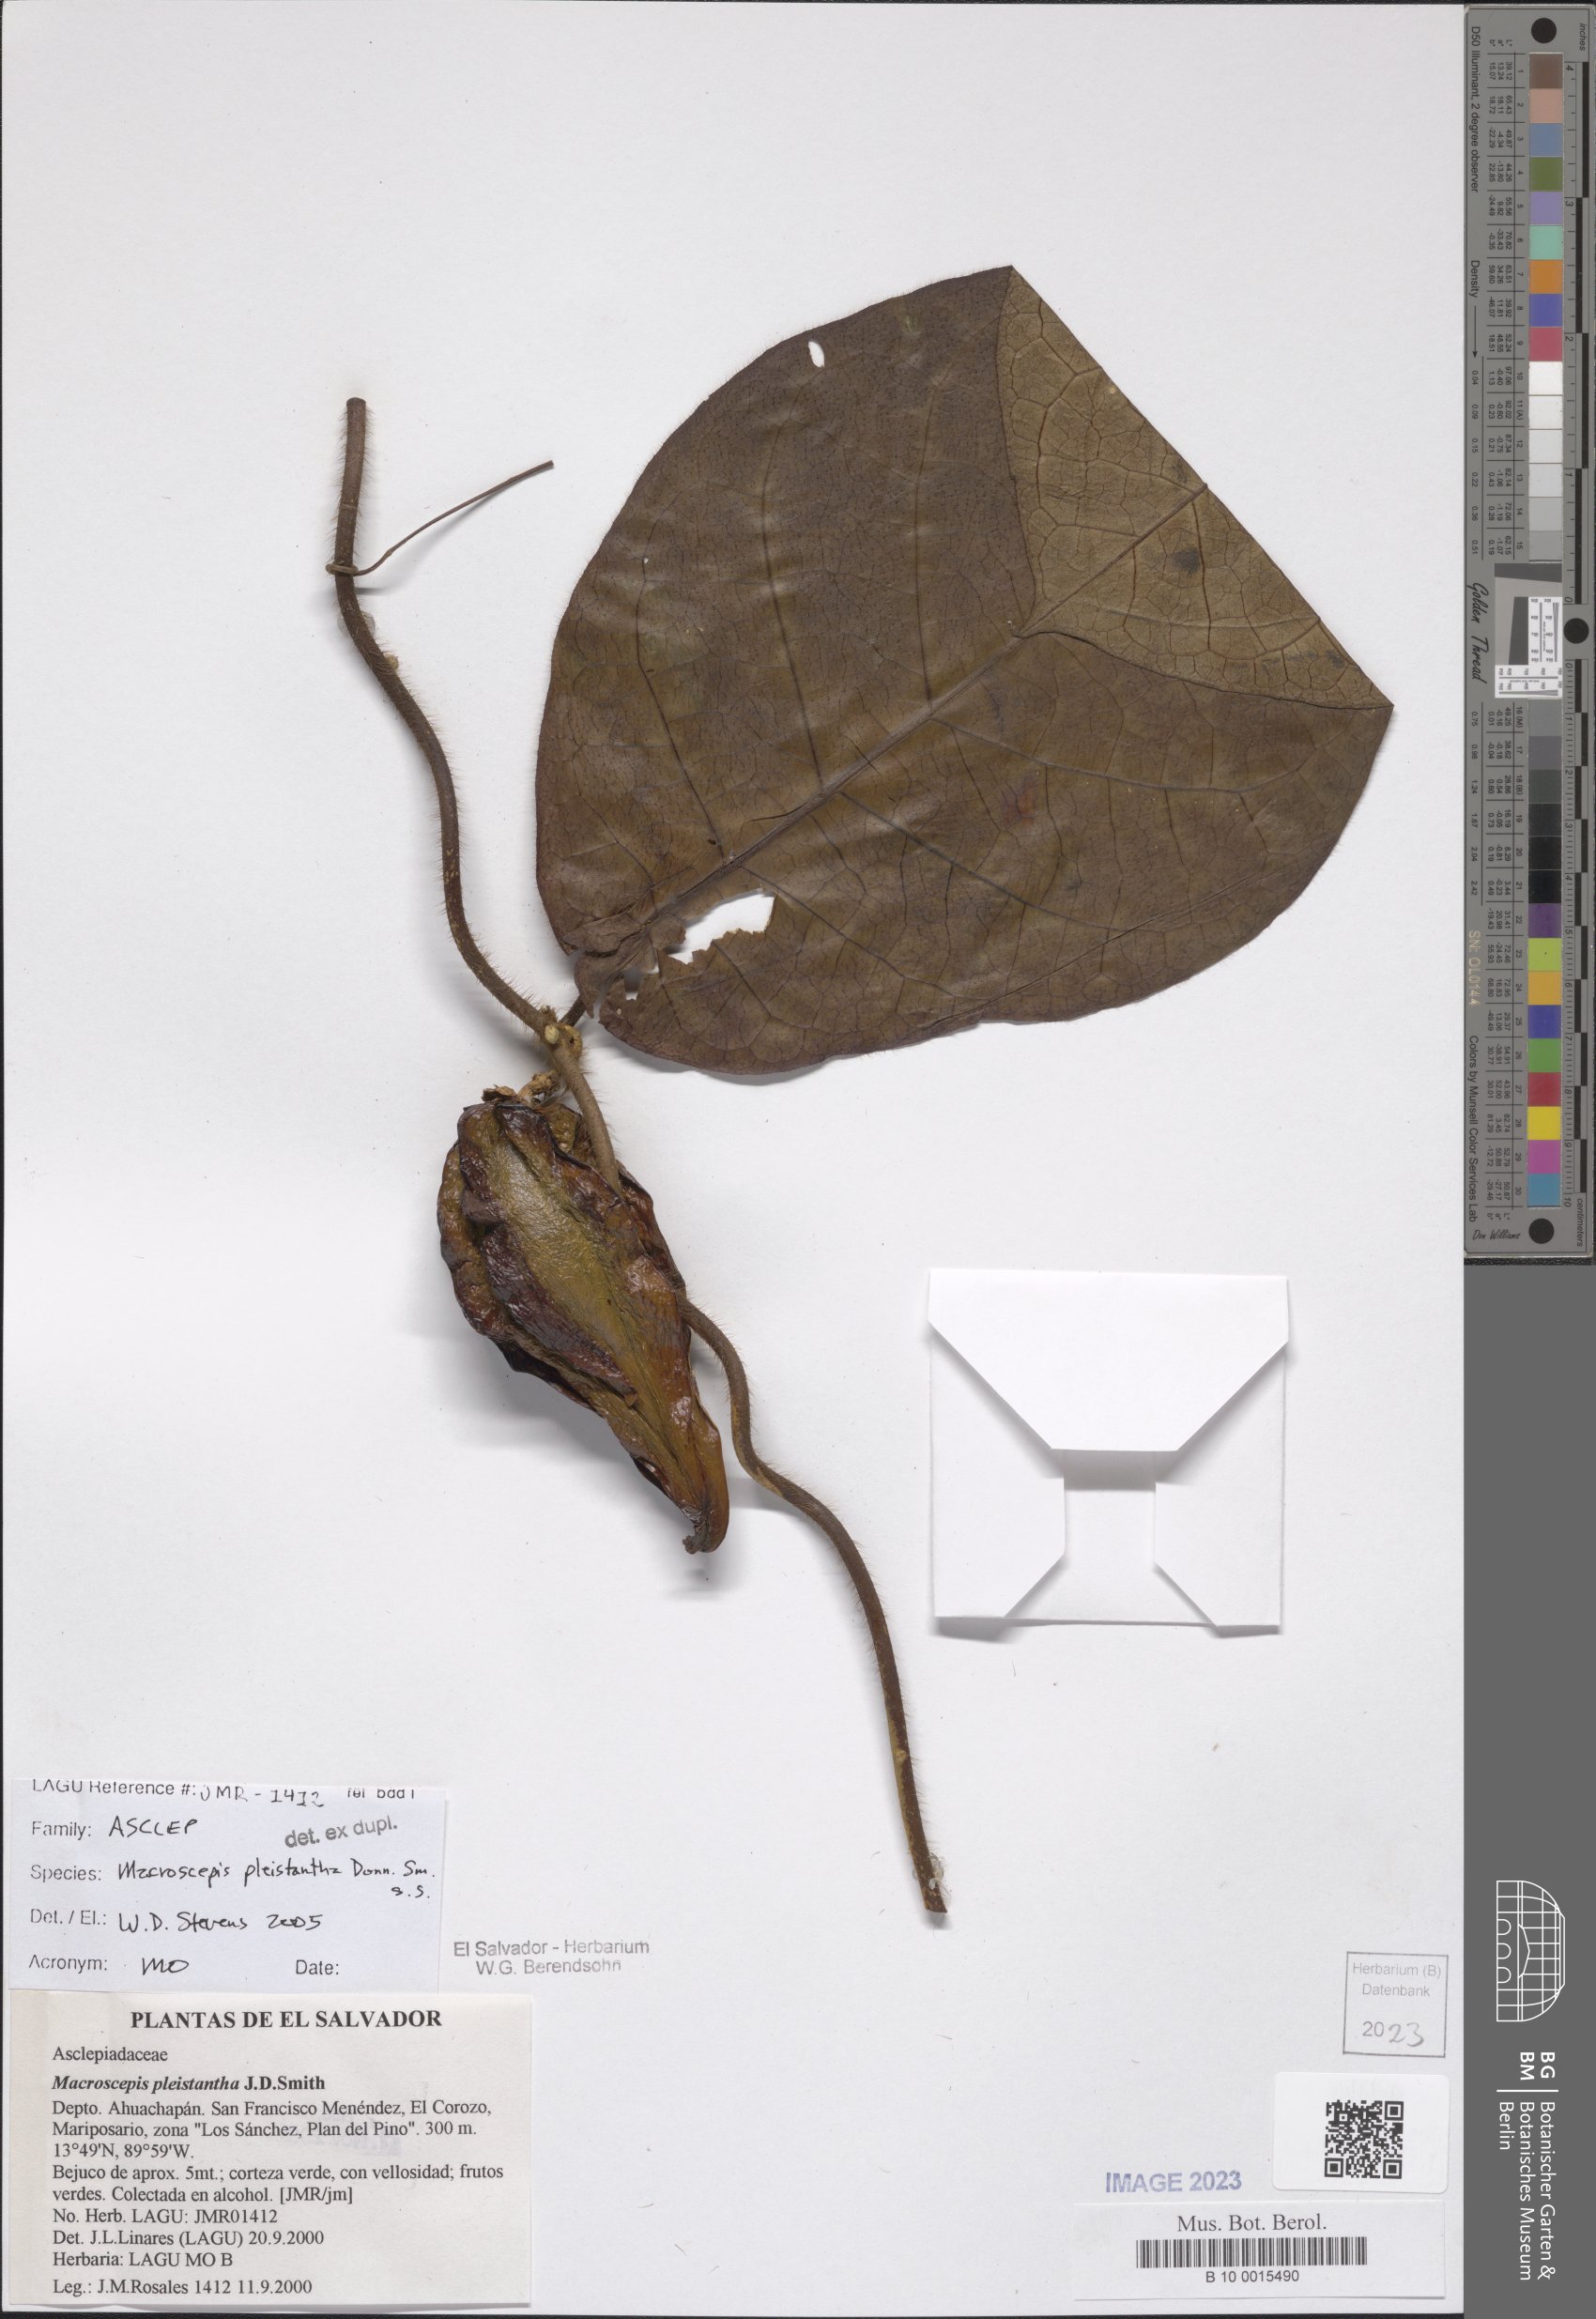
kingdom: Plantae
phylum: Tracheophyta
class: Magnoliopsida
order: Gentianales
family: Apocynaceae
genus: Macroscepis
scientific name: Macroscepis pleistantha
